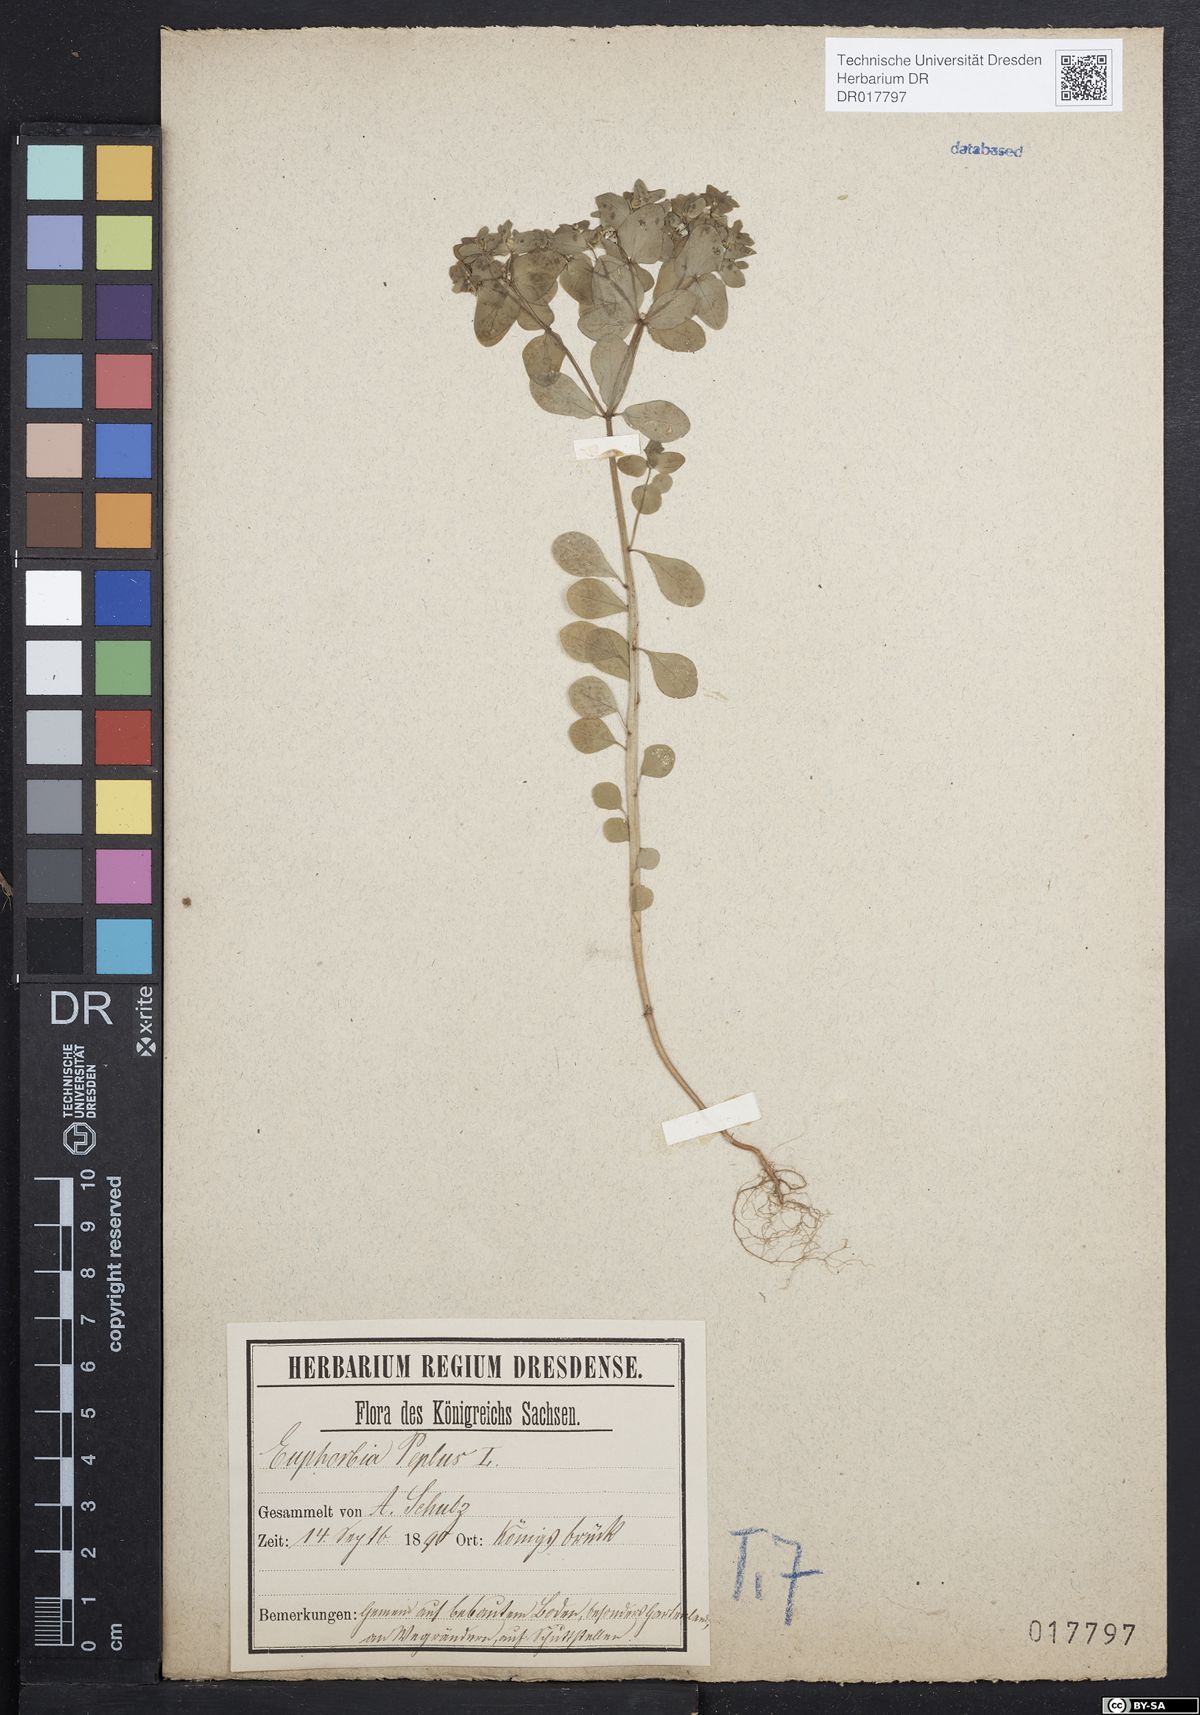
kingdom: Plantae
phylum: Tracheophyta
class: Magnoliopsida
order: Malpighiales
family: Euphorbiaceae
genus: Euphorbia
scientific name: Euphorbia peplus
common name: Petty spurge
